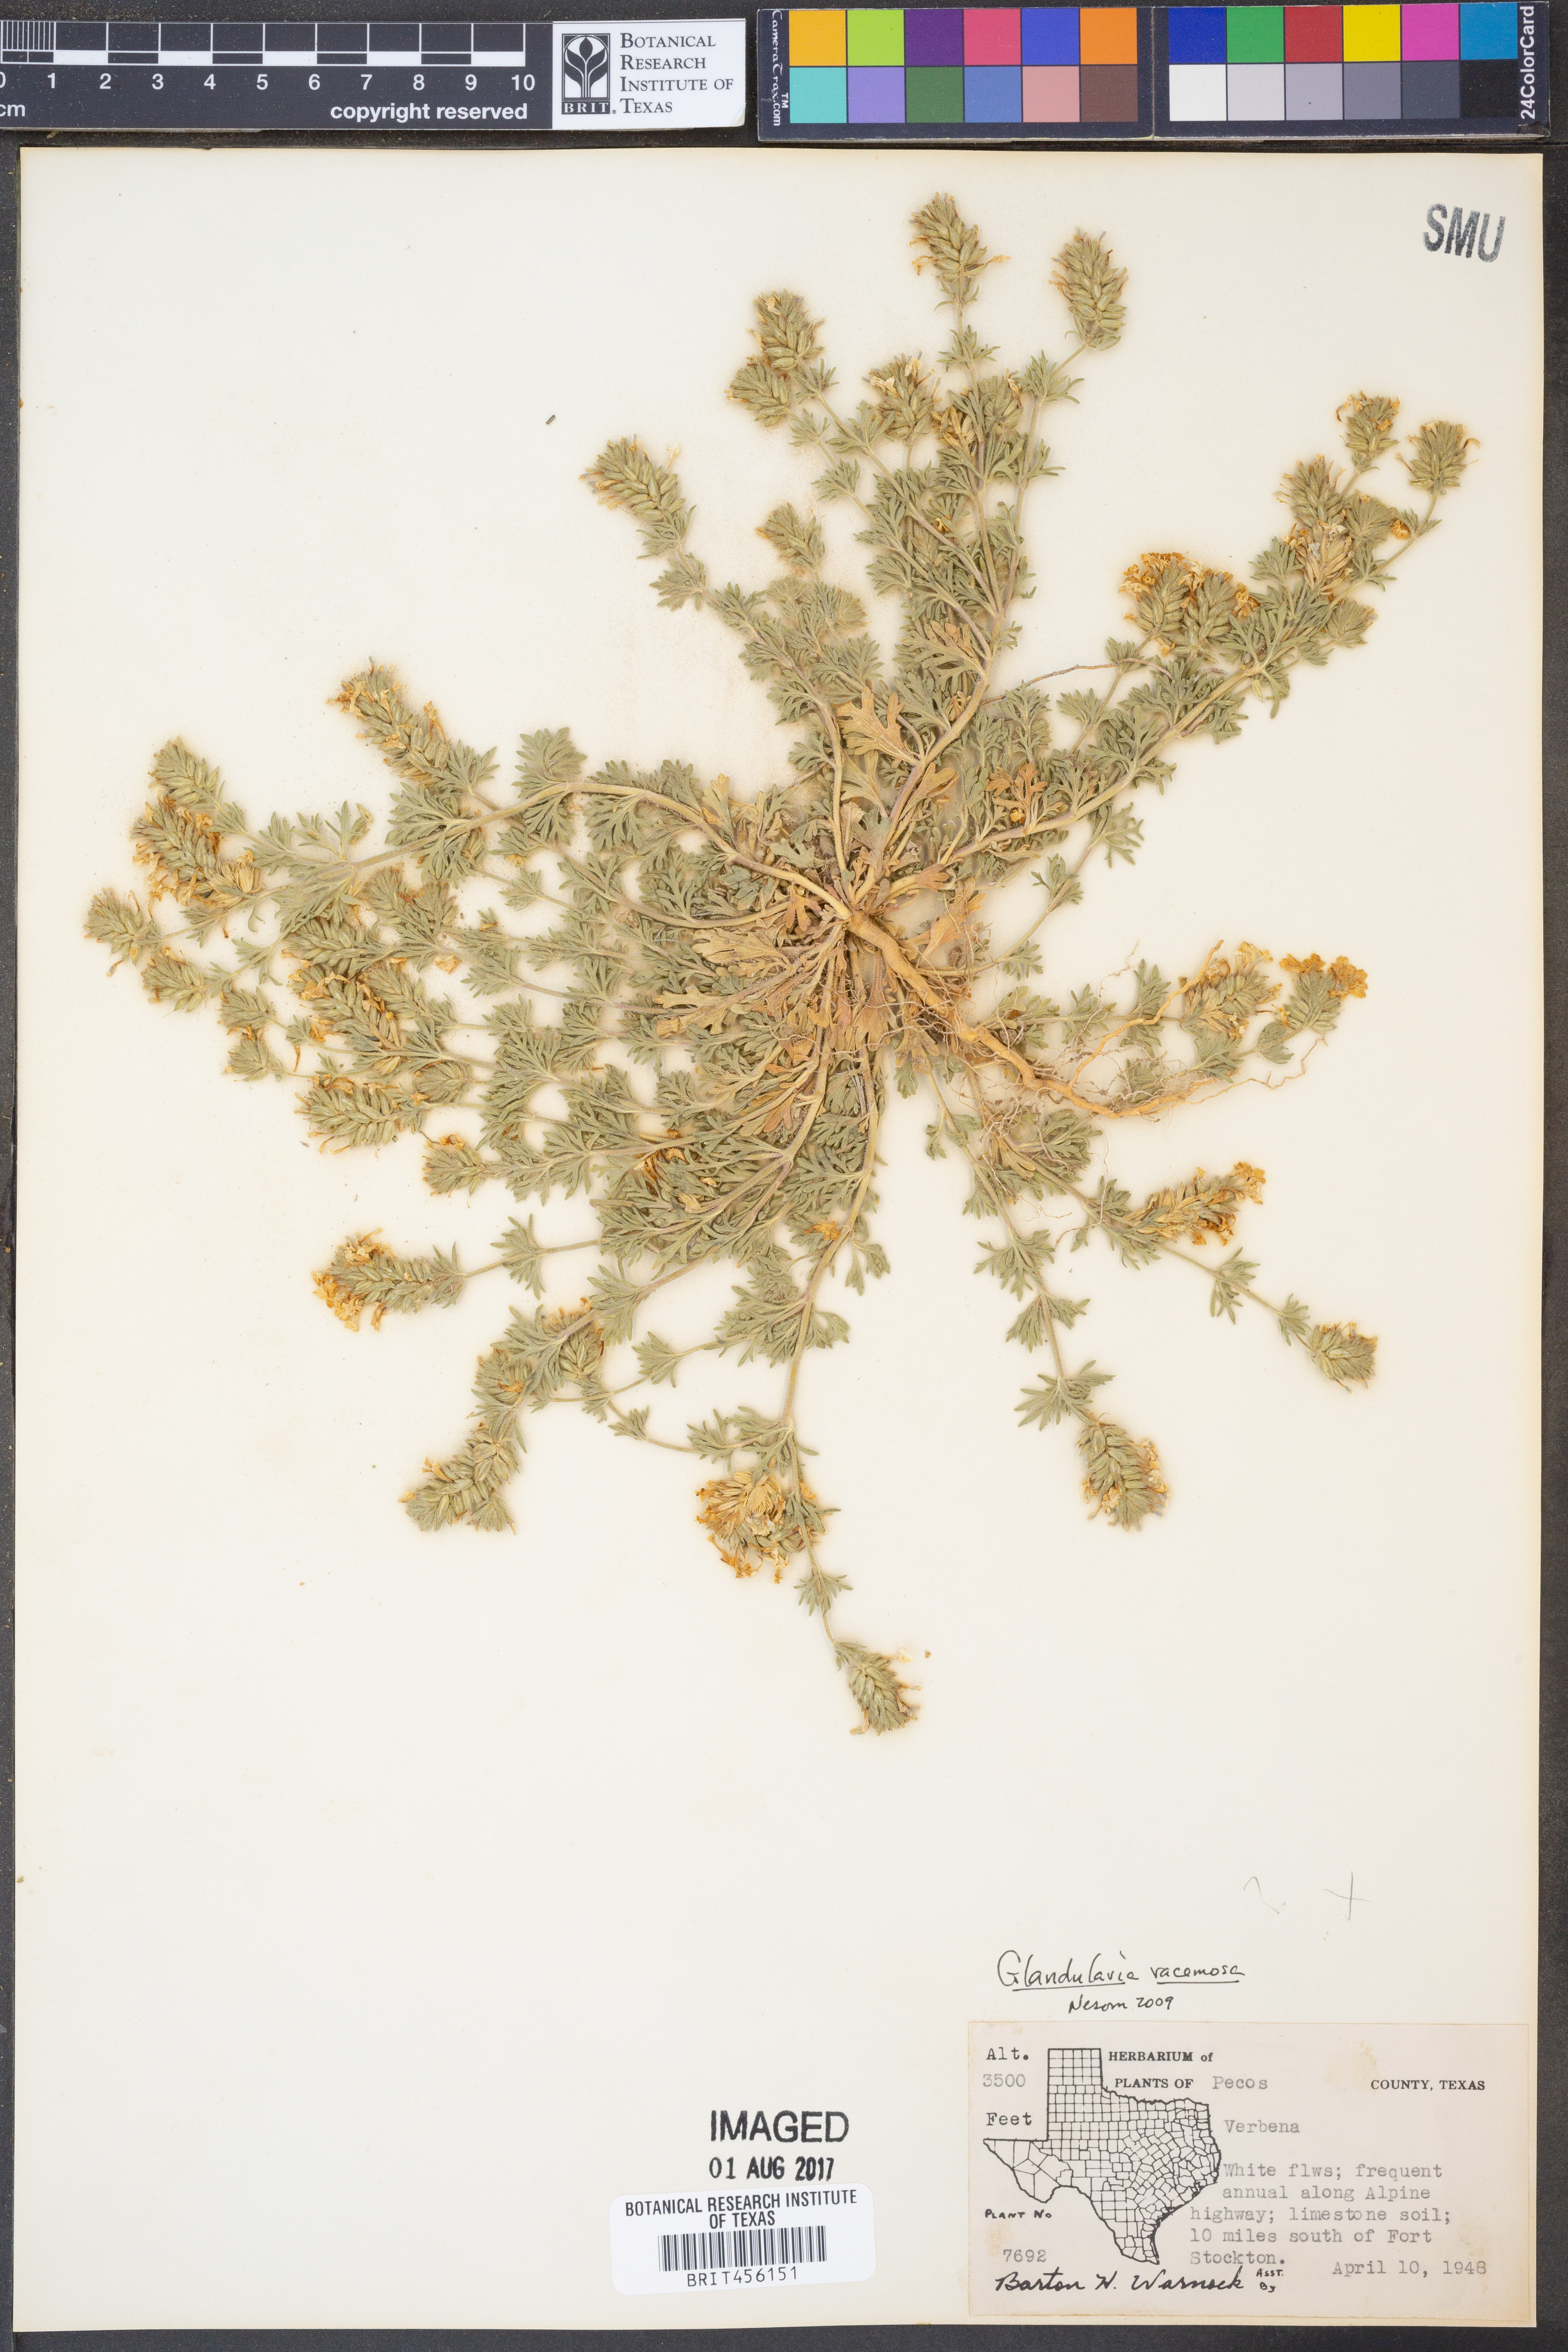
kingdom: Plantae
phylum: Tracheophyta
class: Magnoliopsida
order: Lamiales
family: Verbenaceae
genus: Verbena
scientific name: Verbena racemosa
